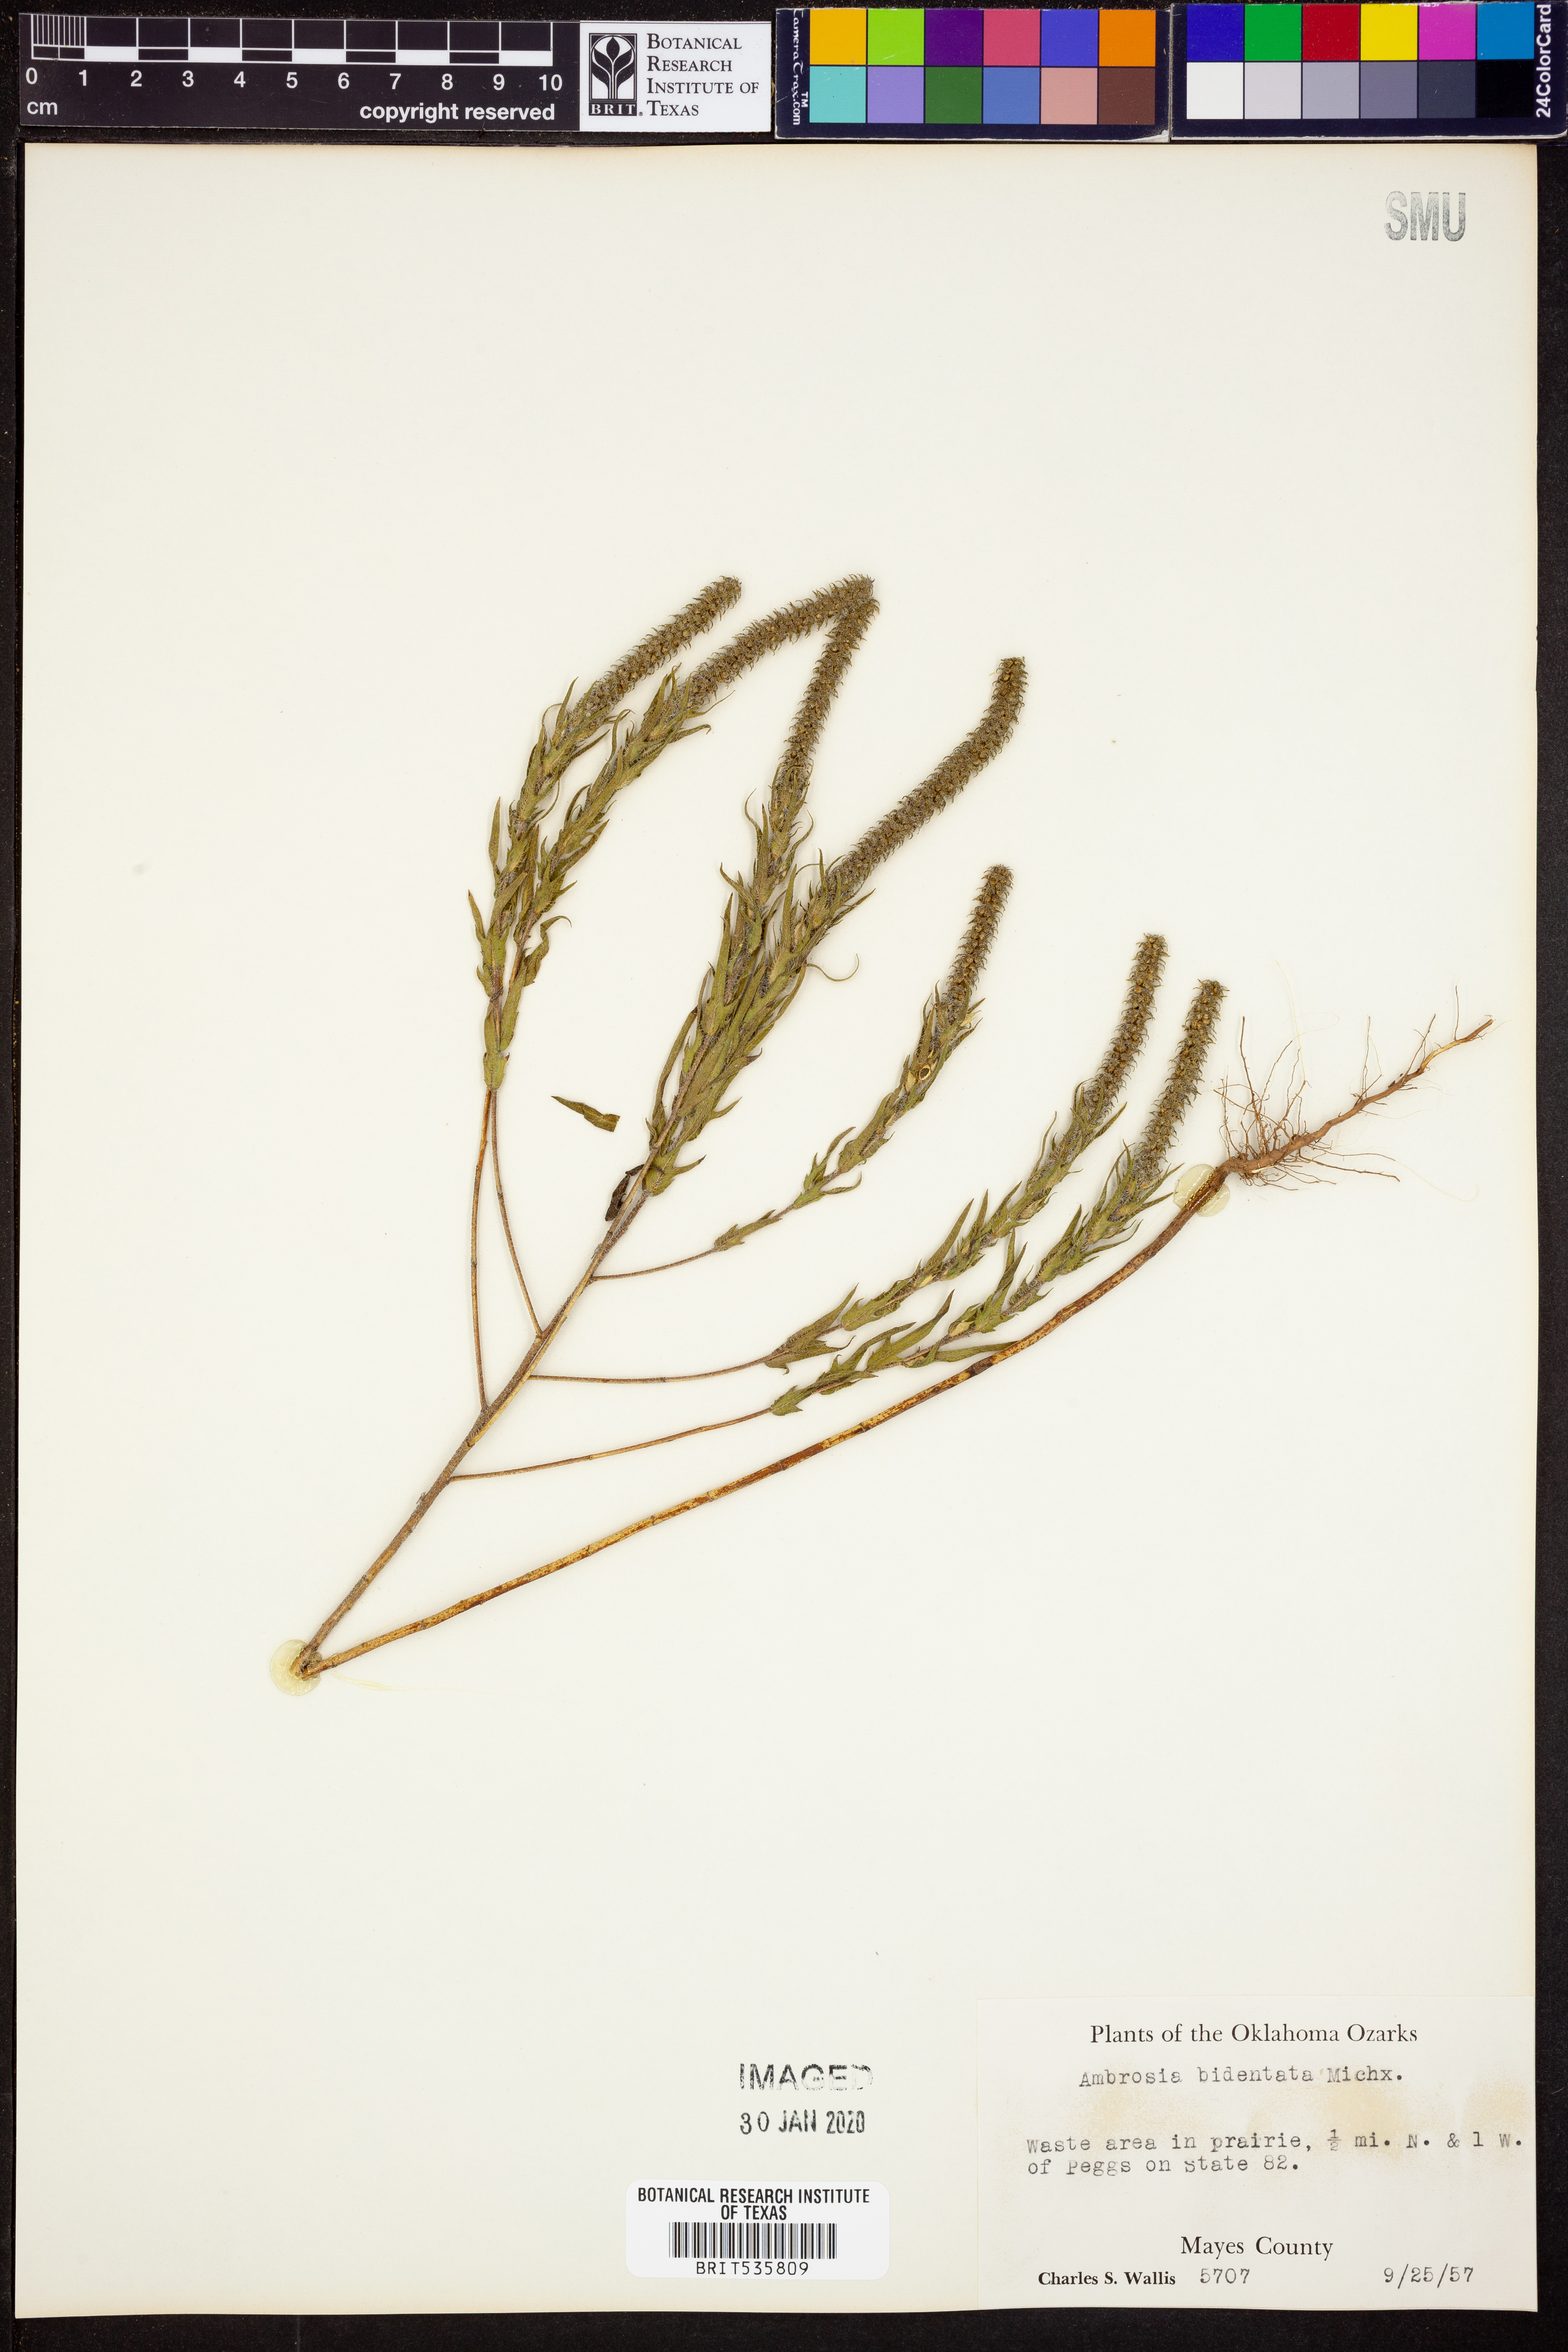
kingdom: Plantae
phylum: Tracheophyta
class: Magnoliopsida
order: Asterales
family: Asteraceae
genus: Ambrosia
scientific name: Ambrosia bidentata
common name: Southern ragweed
